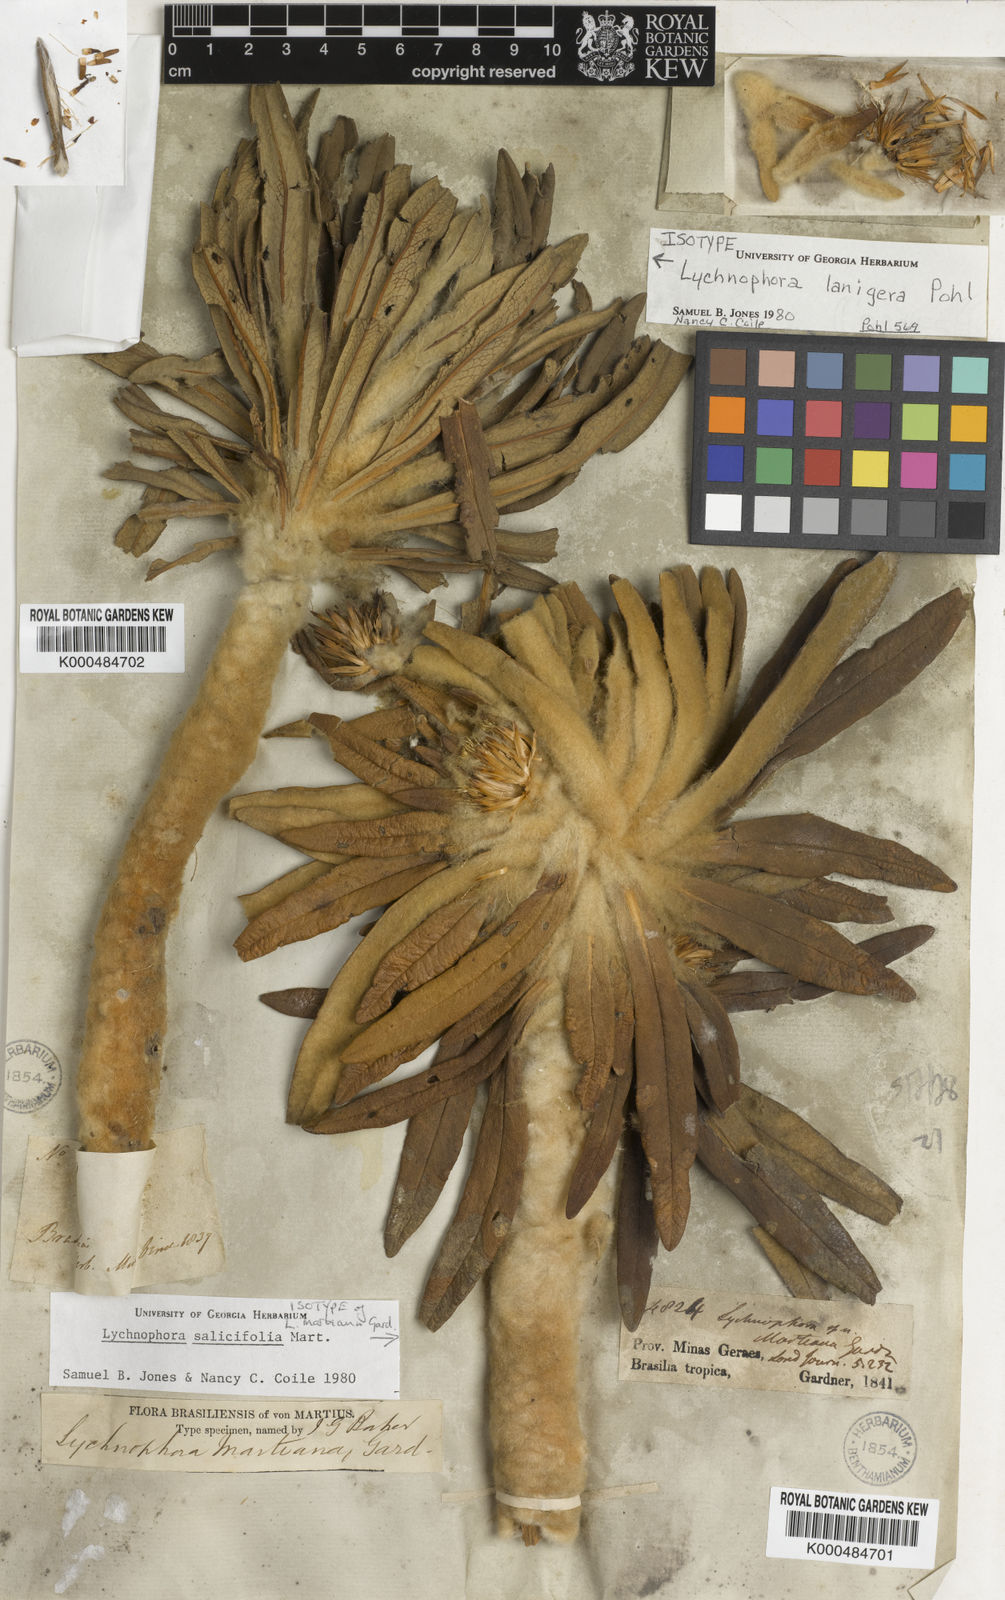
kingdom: Plantae
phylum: Tracheophyta
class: Magnoliopsida
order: Asterales
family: Asteraceae
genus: Lychnophora
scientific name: Lychnophora salicifolia
